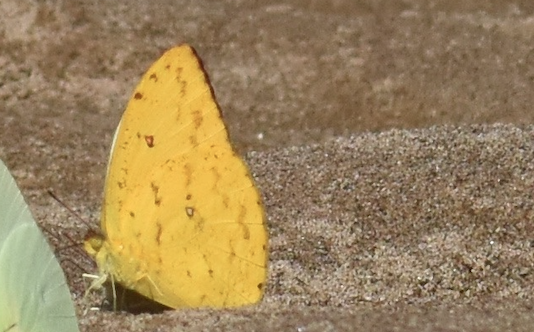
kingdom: Animalia
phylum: Arthropoda
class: Insecta
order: Lepidoptera
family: Pieridae
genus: Phoebis
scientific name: Phoebis
